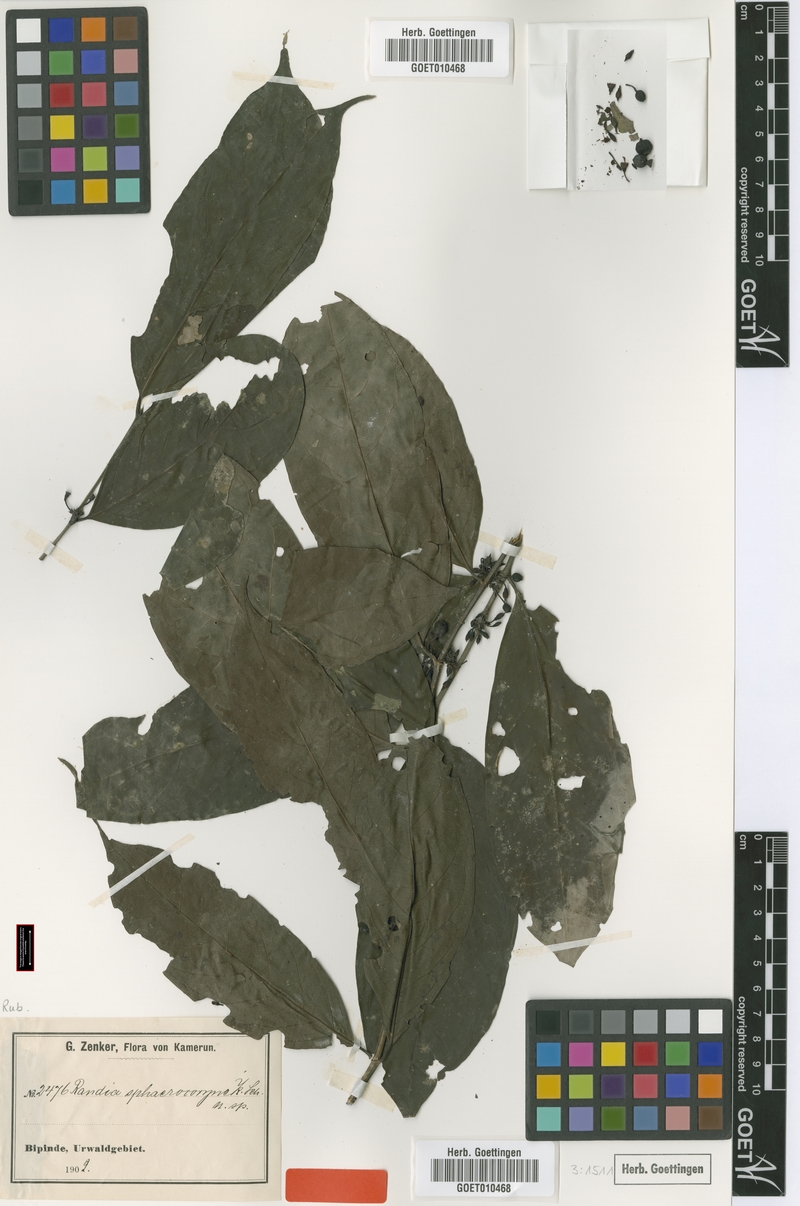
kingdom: Plantae
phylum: Tracheophyta
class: Magnoliopsida
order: Gentianales
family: Rubiaceae
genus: Aidia
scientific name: Aidia micrantha
